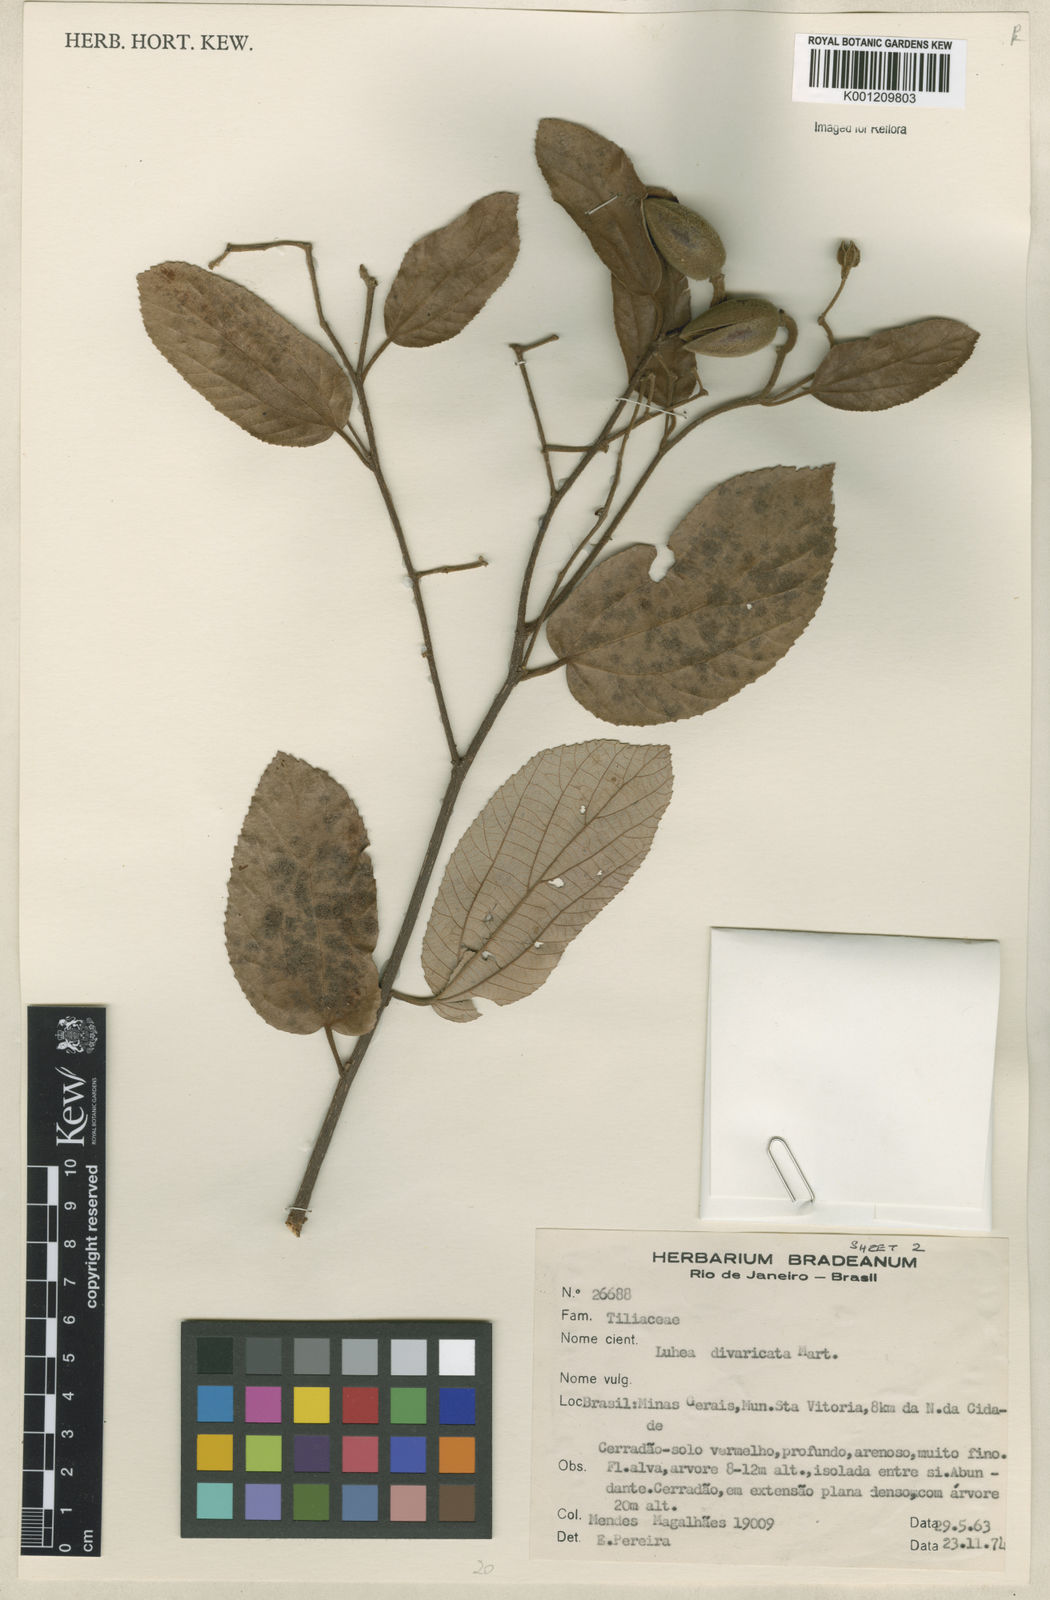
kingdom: Plantae
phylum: Tracheophyta
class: Magnoliopsida
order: Malvales
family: Malvaceae
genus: Luehea
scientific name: Luehea divaricata
